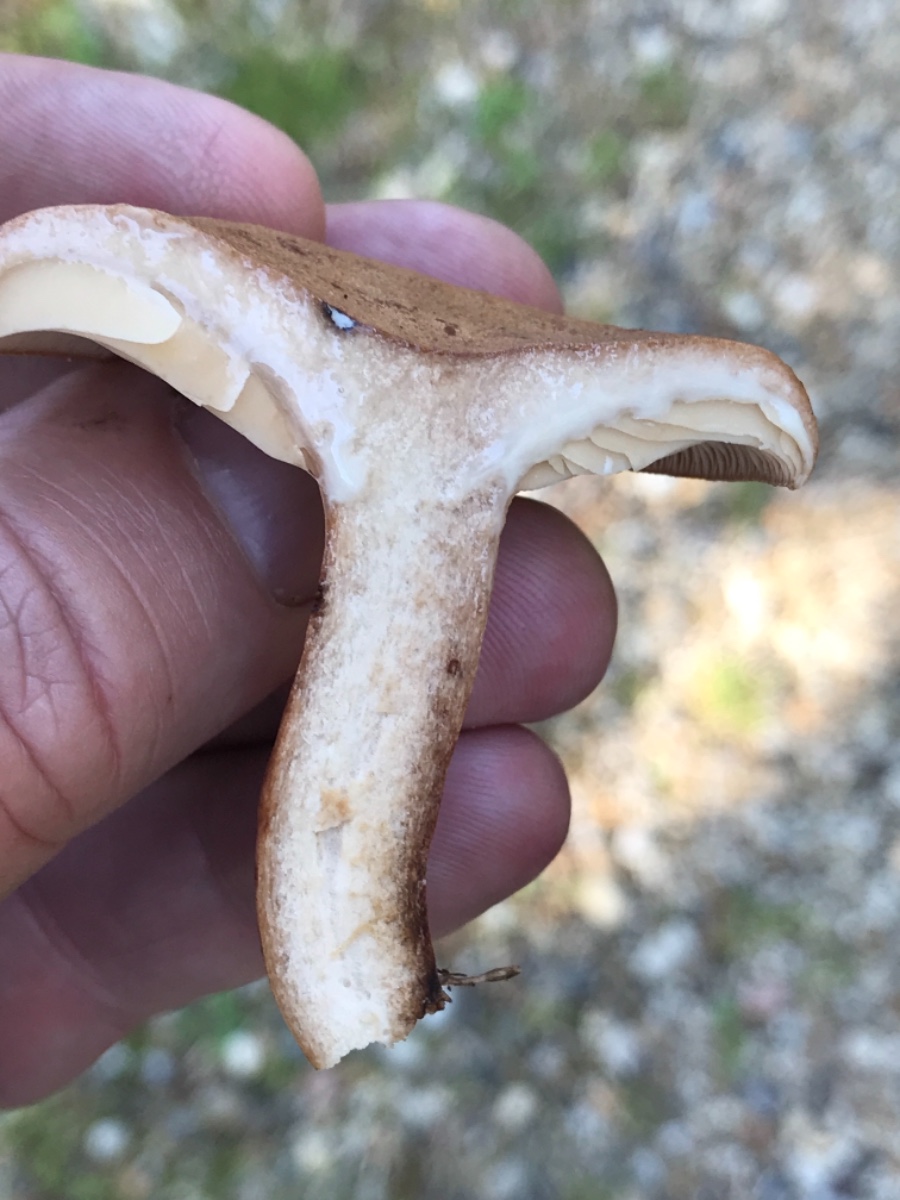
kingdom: Fungi
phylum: Basidiomycota
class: Agaricomycetes
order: Russulales
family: Russulaceae
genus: Lactarius
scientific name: Lactarius quietus
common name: ege-mælkehat
